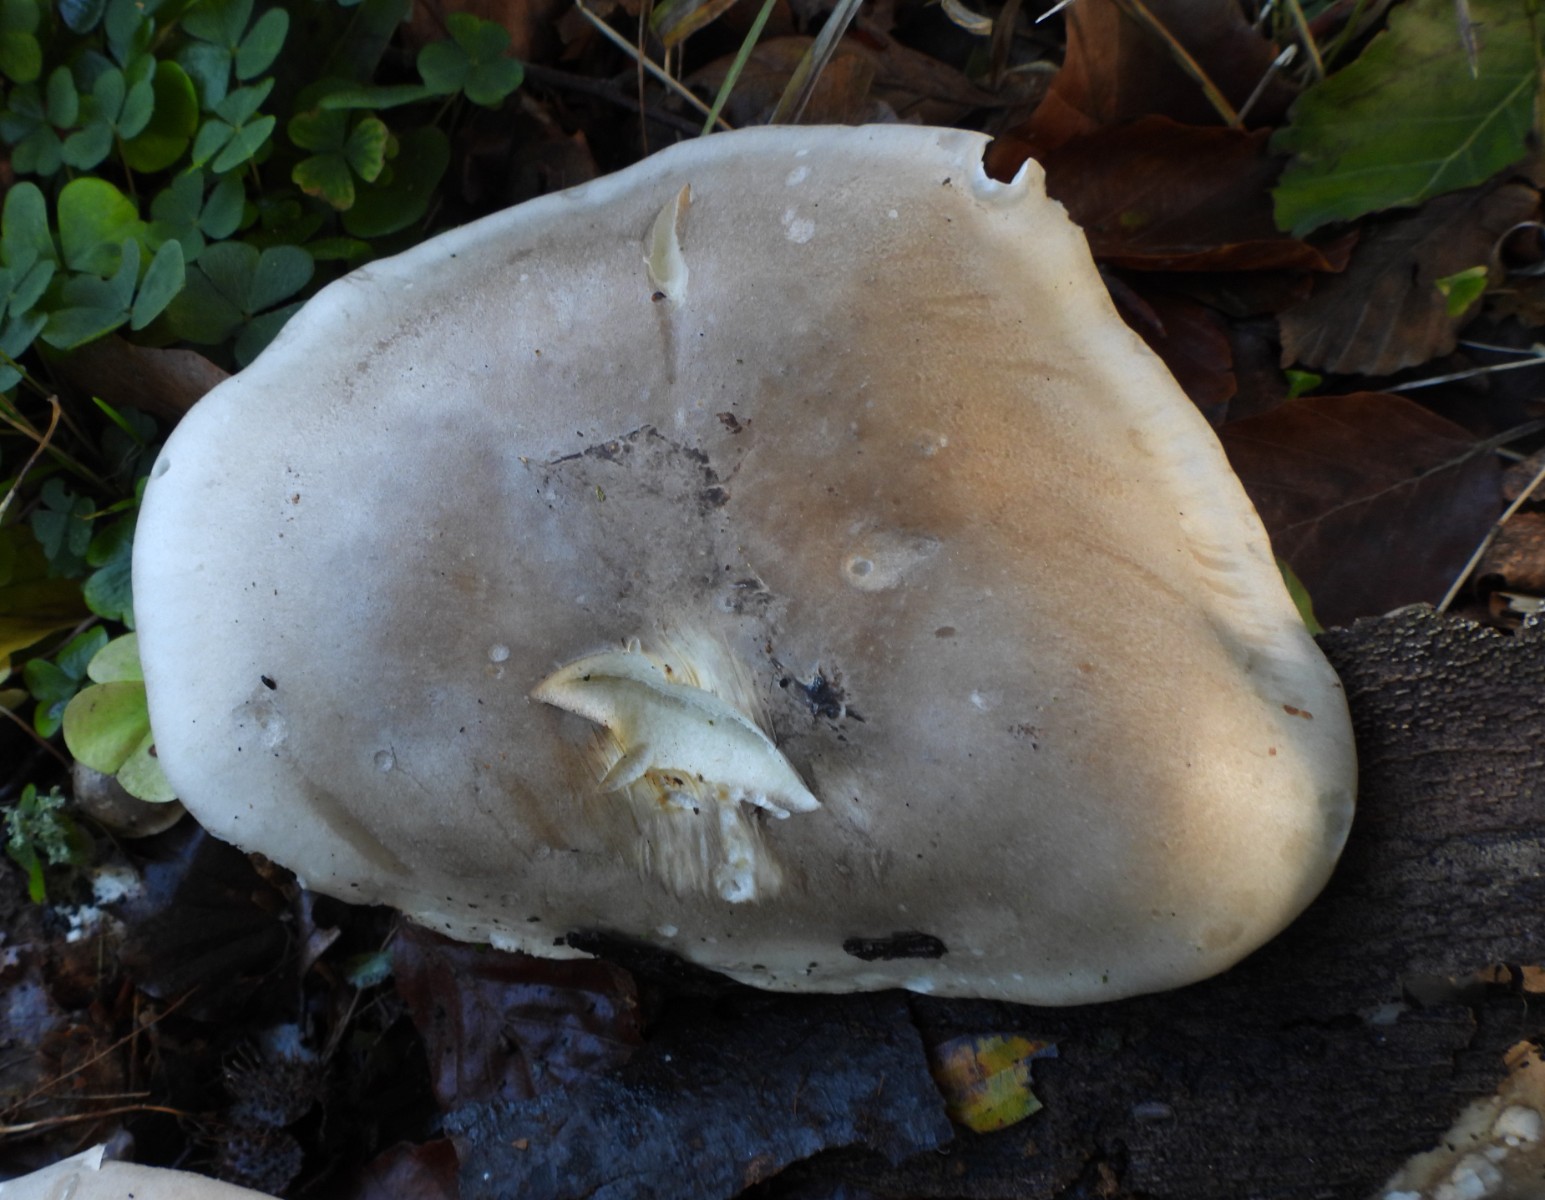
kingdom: Fungi
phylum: Basidiomycota
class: Agaricomycetes
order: Agaricales
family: Tricholomataceae
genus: Clitocybe
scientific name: Clitocybe nebularis
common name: tåge-tragthat
